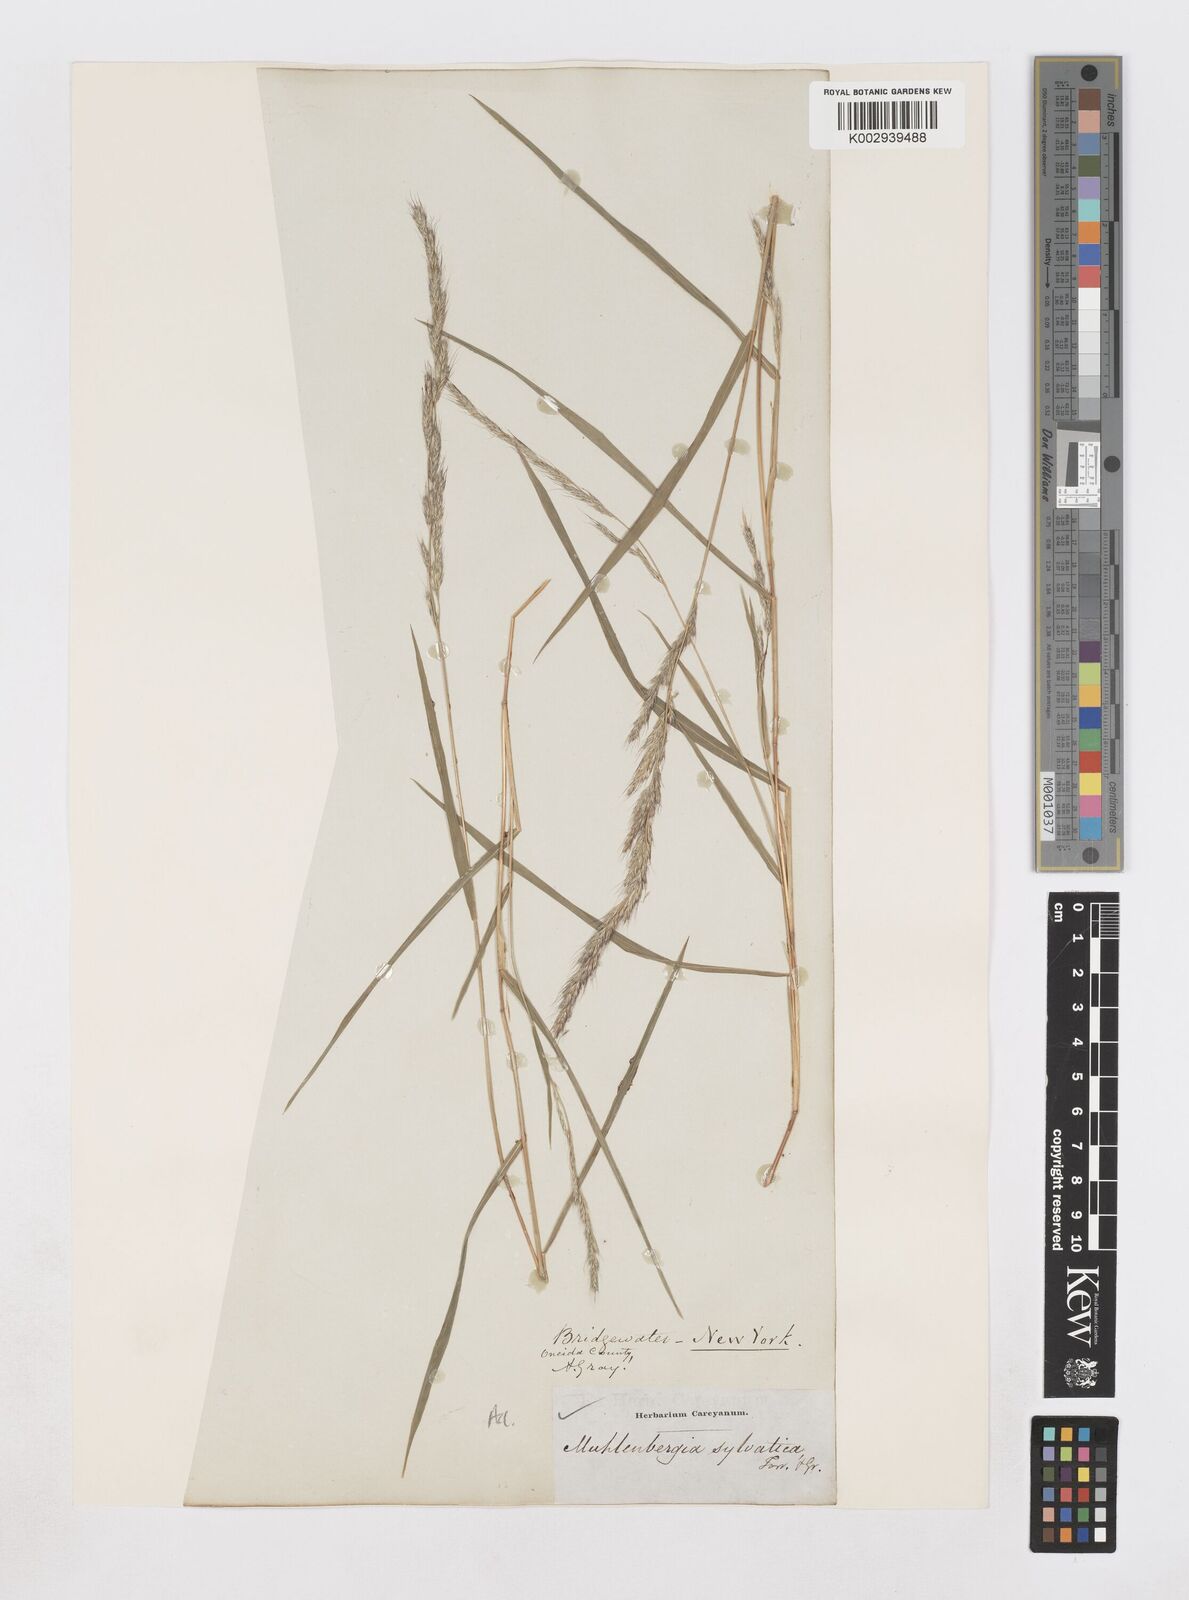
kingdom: Plantae
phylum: Tracheophyta
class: Liliopsida
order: Poales
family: Poaceae
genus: Muhlenbergia
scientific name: Muhlenbergia sylvatica
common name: Woodland muhly
